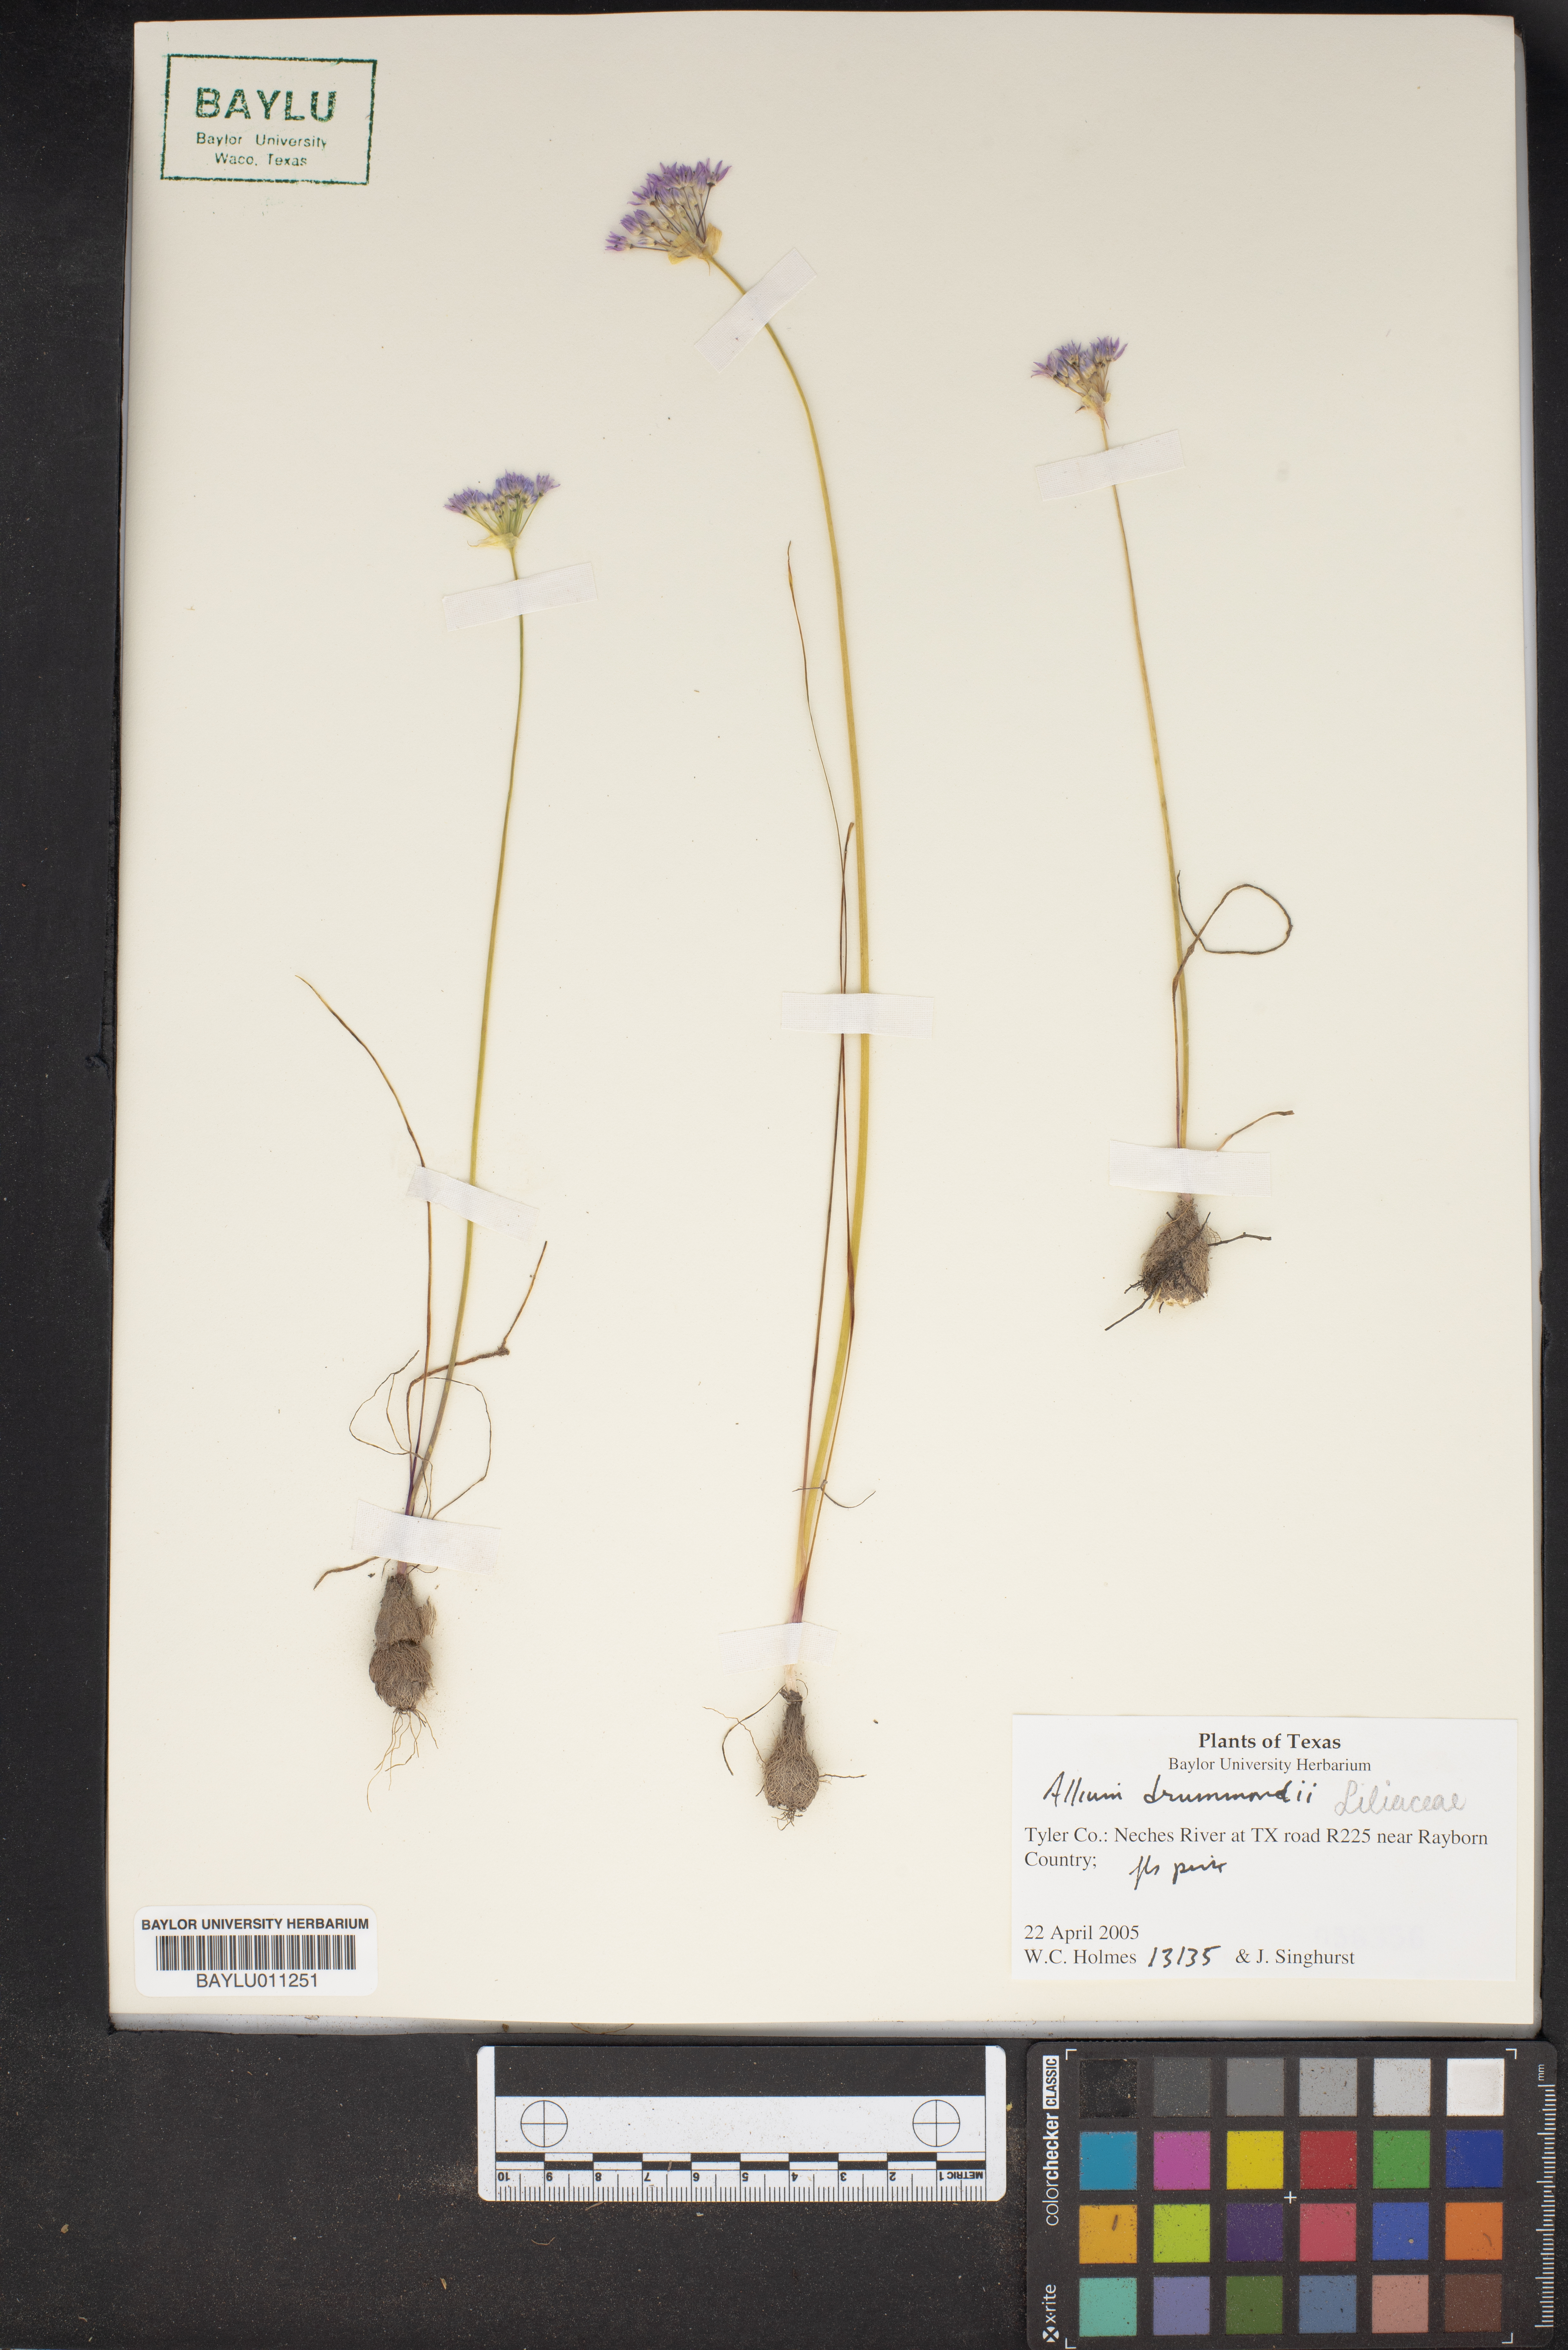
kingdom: Plantae
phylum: Tracheophyta
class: Liliopsida
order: Asparagales
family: Amaryllidaceae
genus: Allium
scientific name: Allium drummondii
